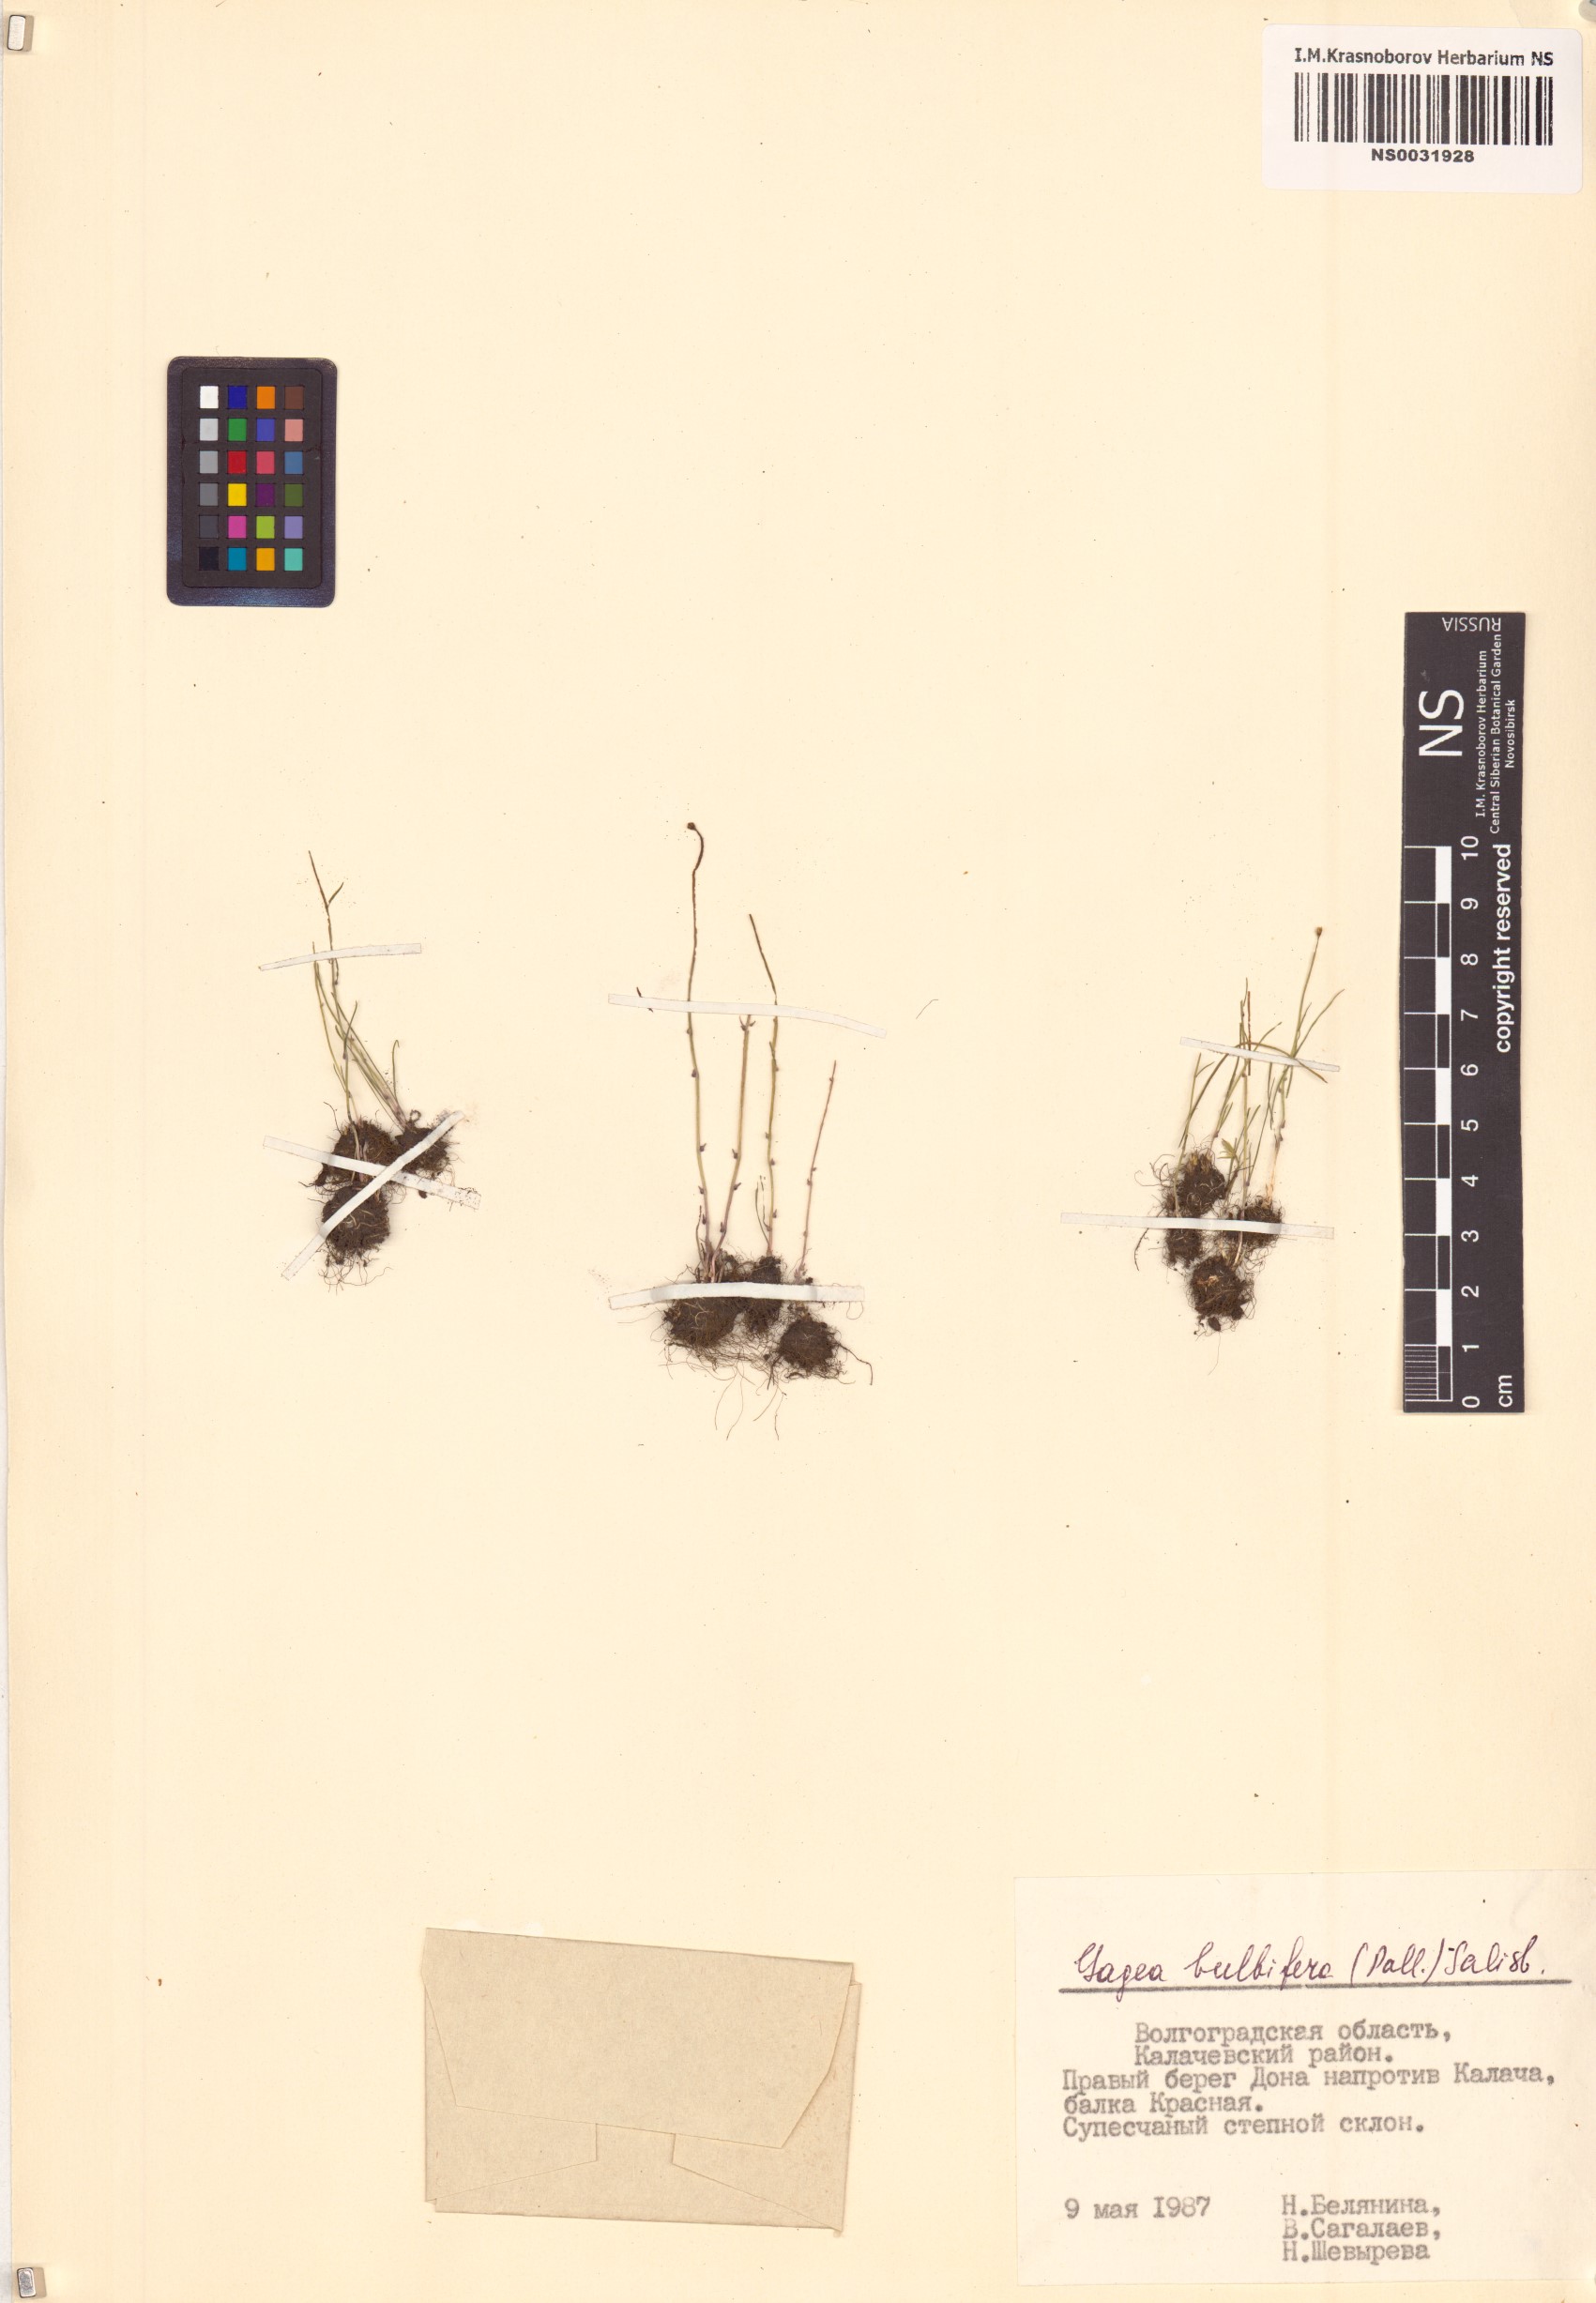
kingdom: Plantae
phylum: Tracheophyta
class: Liliopsida
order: Liliales
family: Liliaceae
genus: Gagea
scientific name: Gagea bulbifera
